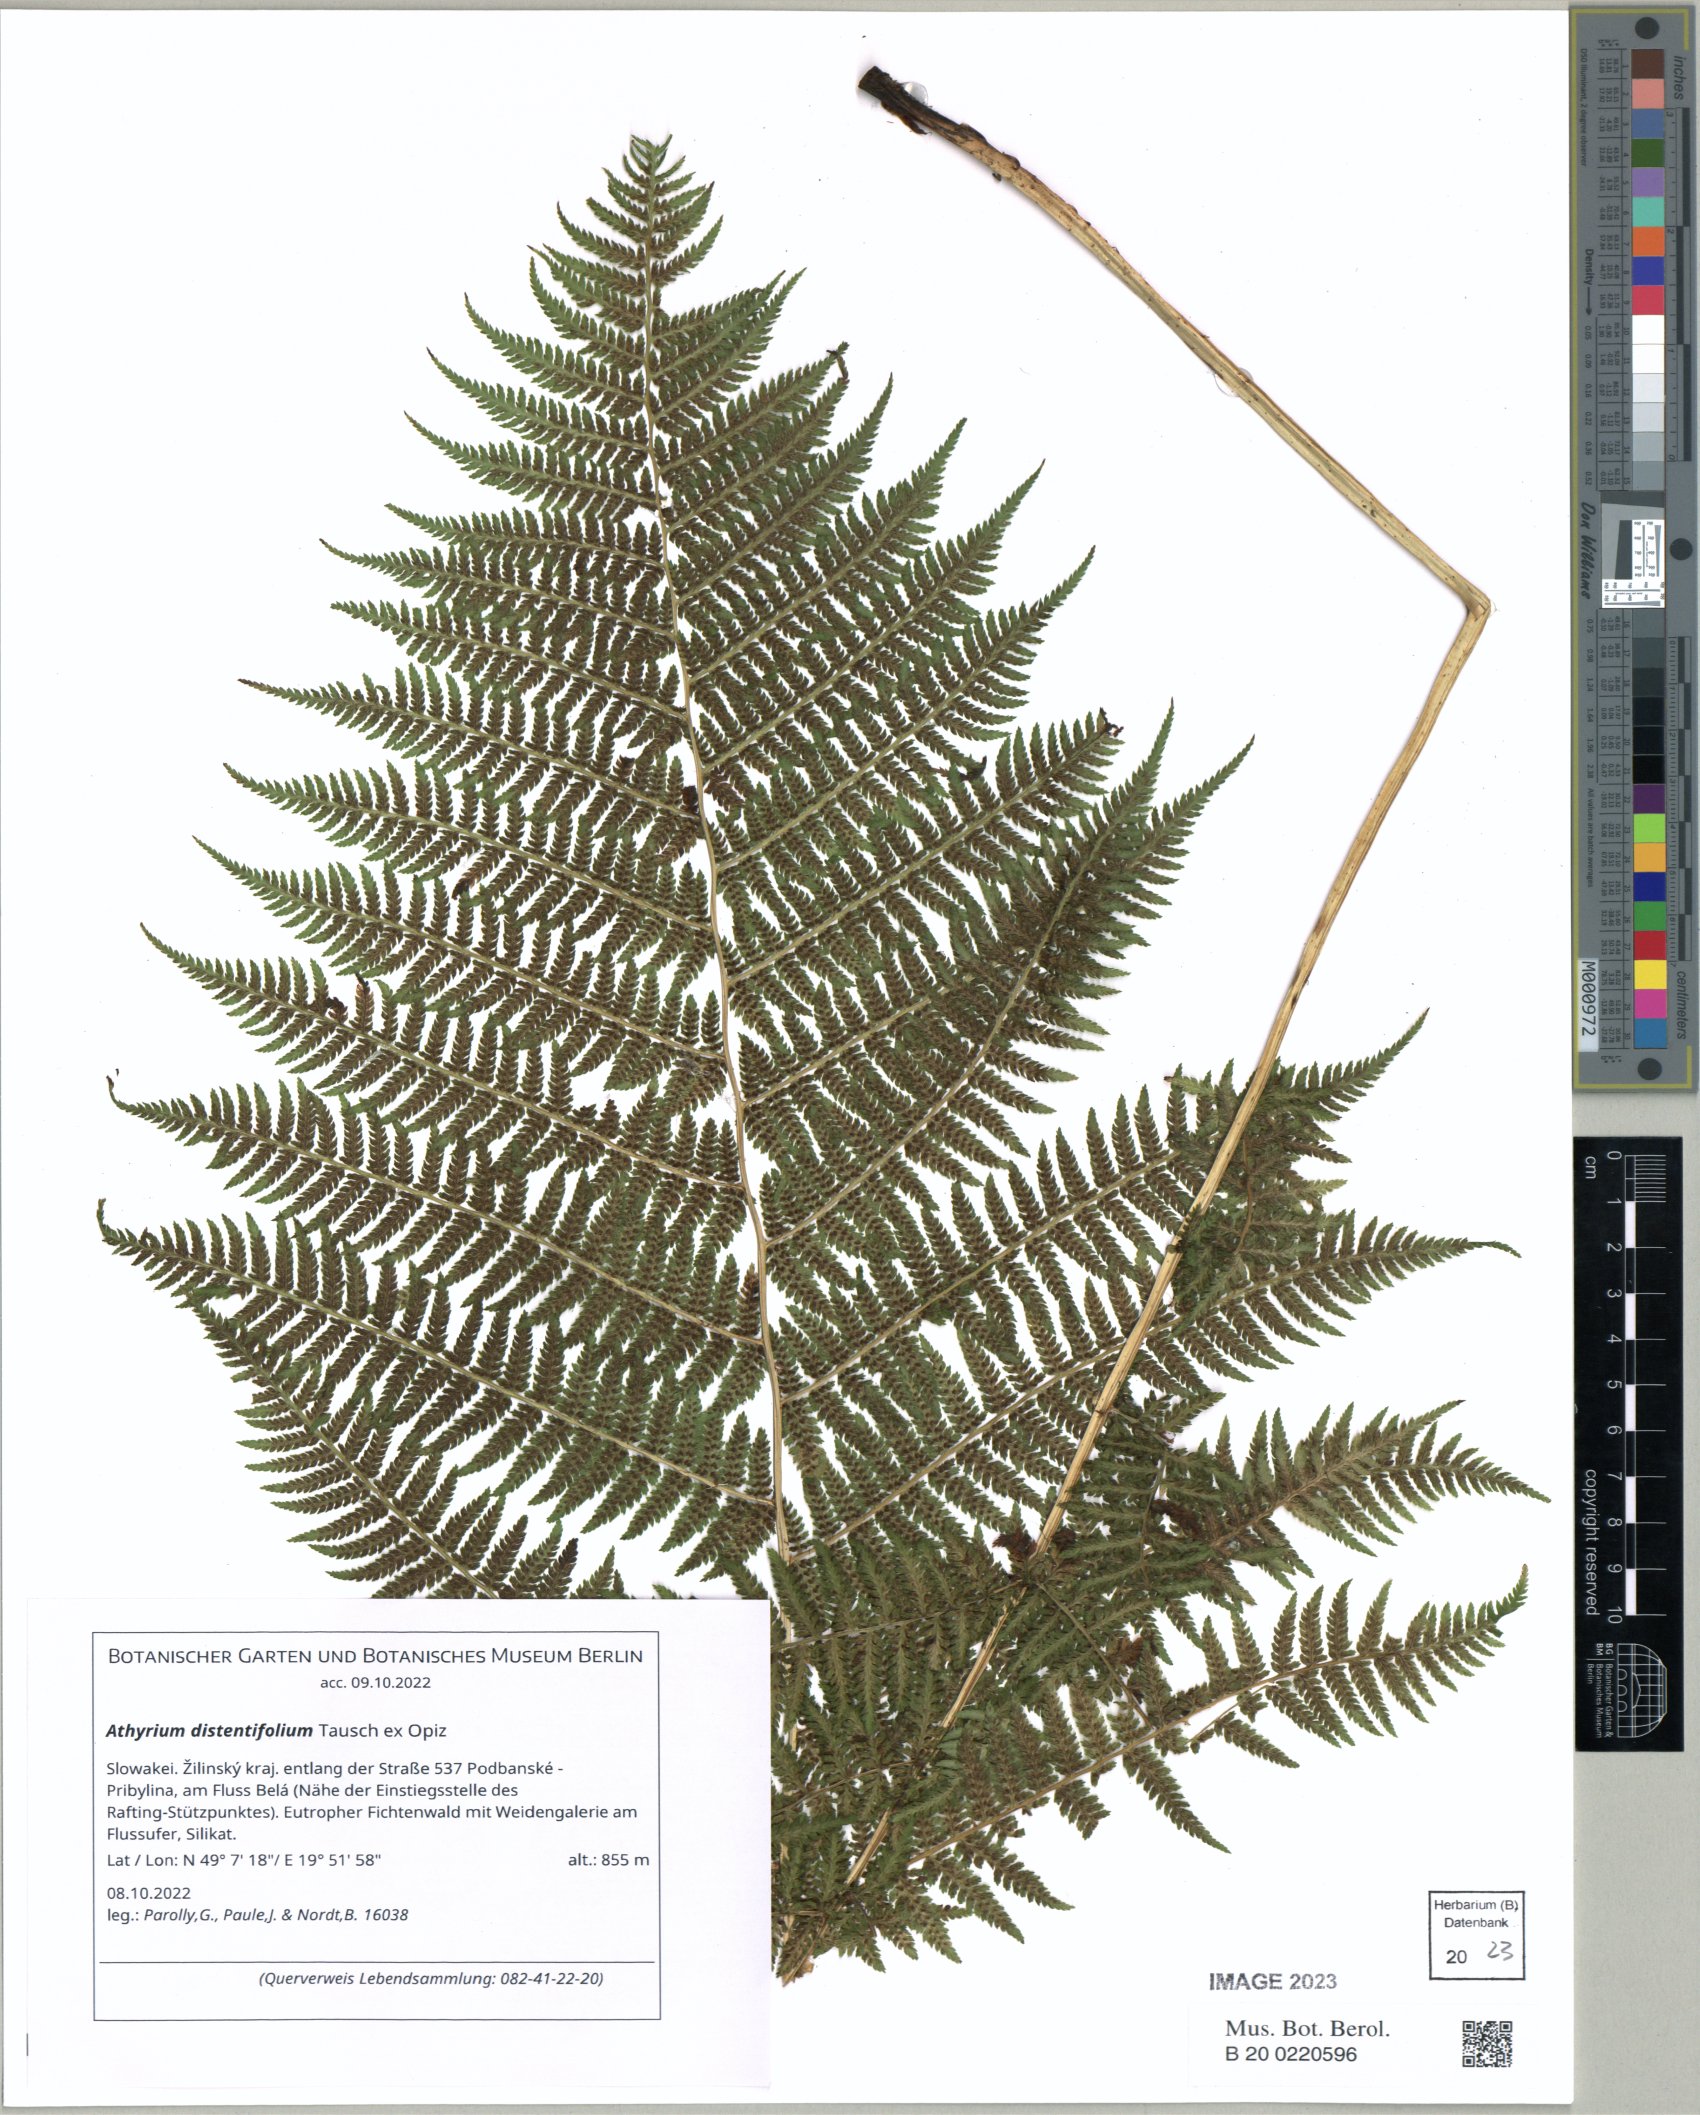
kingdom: Plantae
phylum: Tracheophyta
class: Polypodiopsida
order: Polypodiales
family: Athyriaceae
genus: Pseudathyrium
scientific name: Pseudathyrium alpestre
